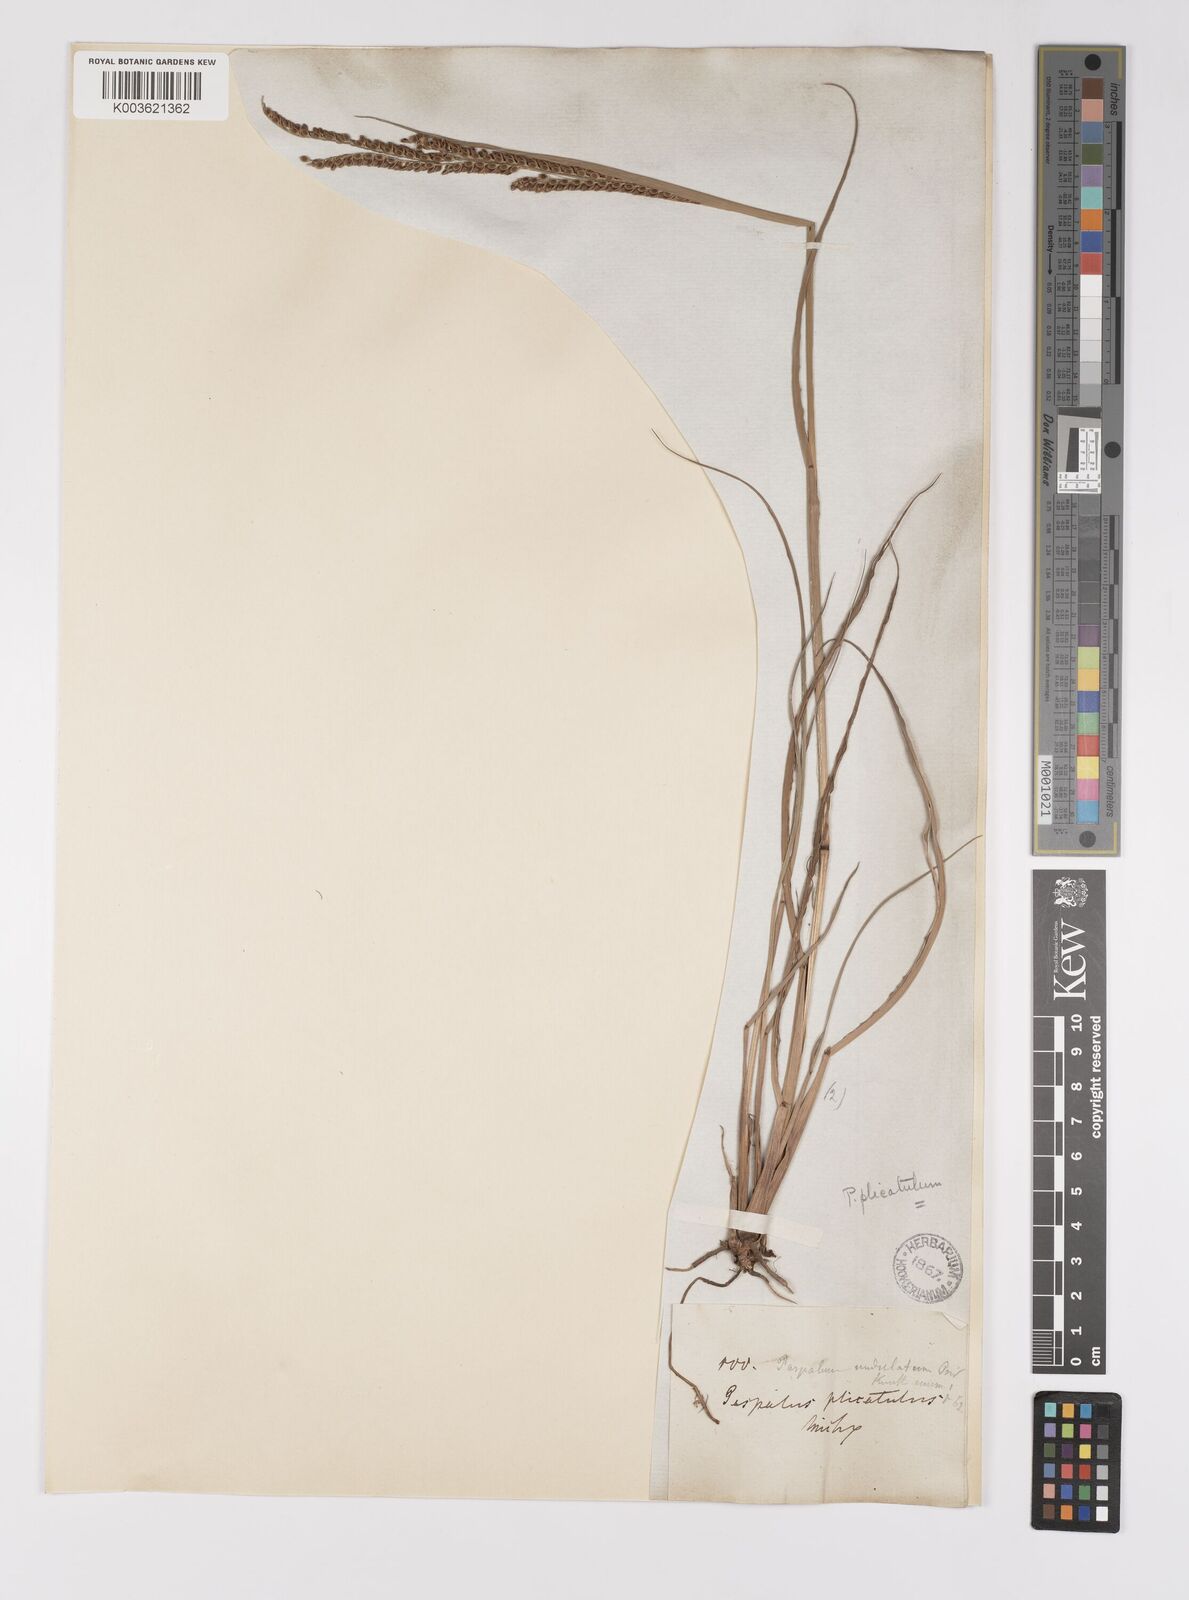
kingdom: Plantae
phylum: Tracheophyta
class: Liliopsida
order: Poales
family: Poaceae
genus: Paspalum
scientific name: Paspalum plicatulum
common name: Top paspalum
